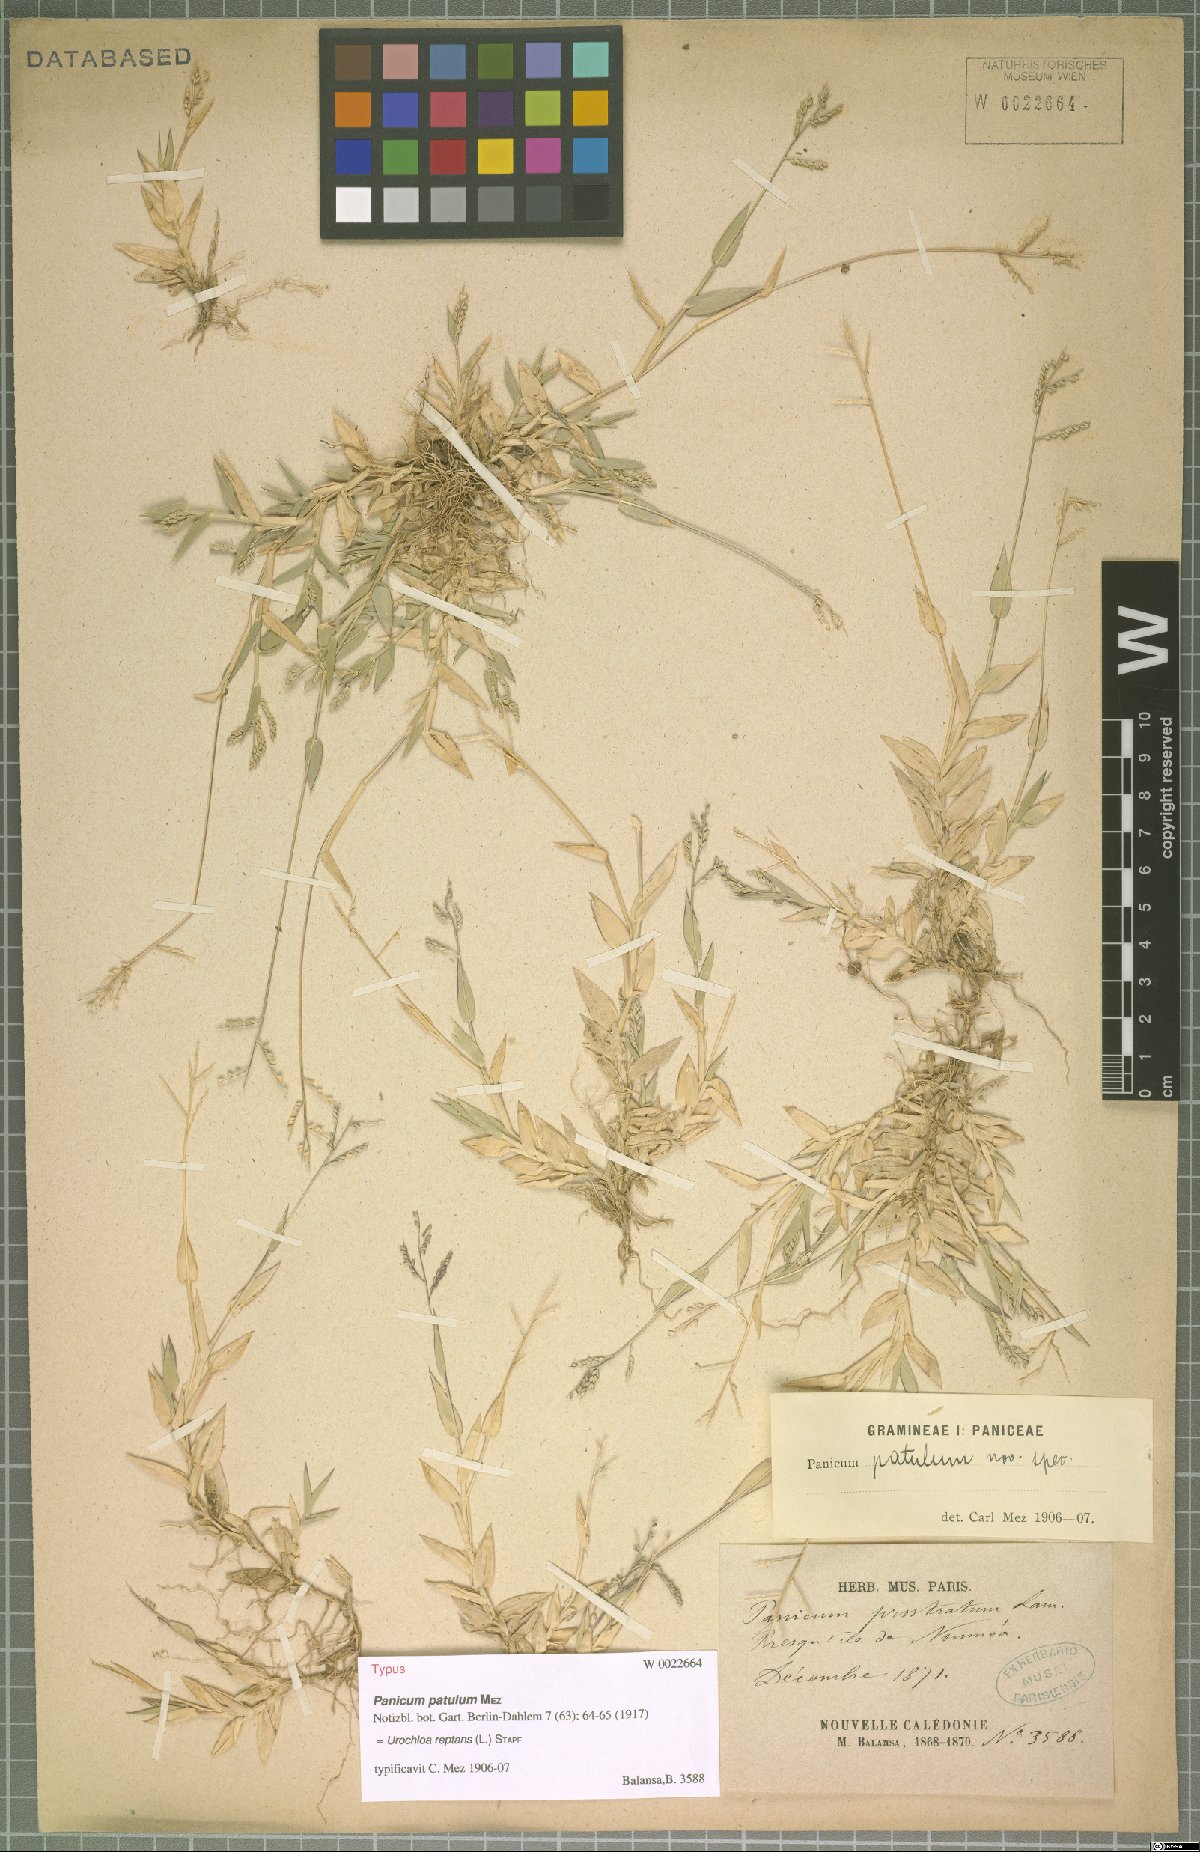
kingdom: Plantae
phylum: Tracheophyta
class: Liliopsida
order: Poales
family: Poaceae
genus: Urochloa
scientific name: Urochloa reptans
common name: Sprawling signalgrass
